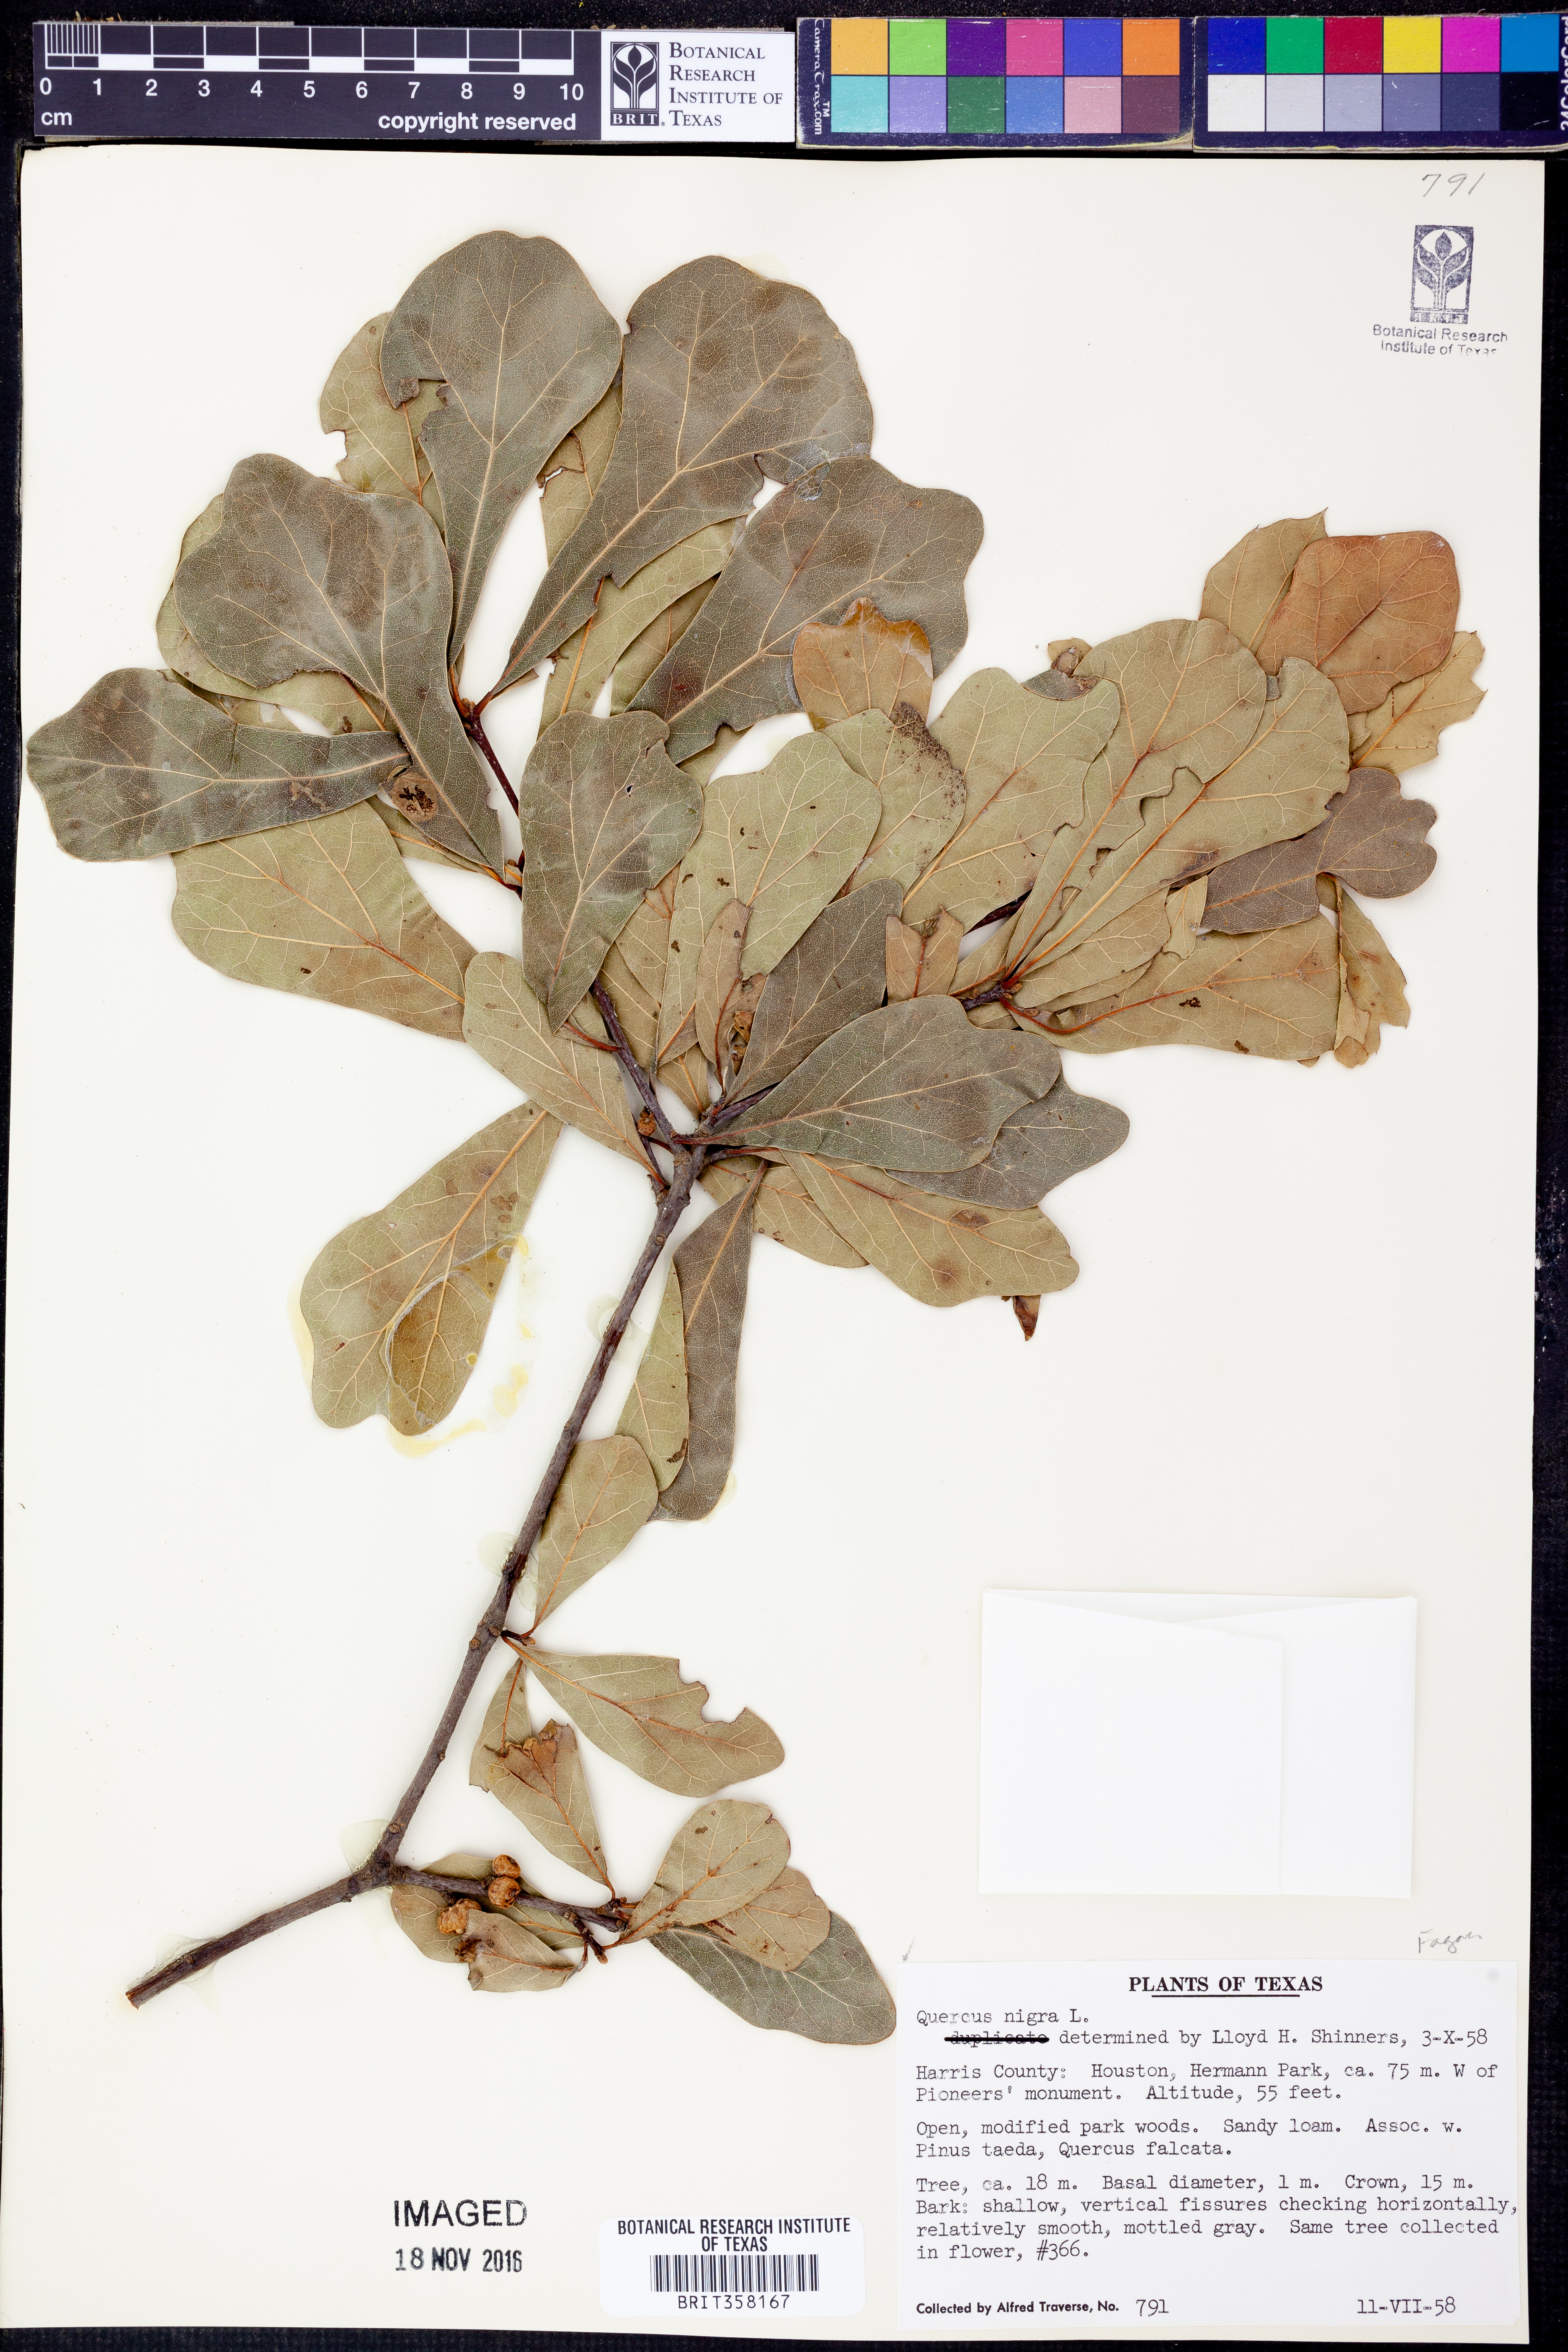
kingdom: Plantae
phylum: Tracheophyta
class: Magnoliopsida
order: Fagales
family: Fagaceae
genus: Quercus
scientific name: Quercus nigra
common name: Water oak
